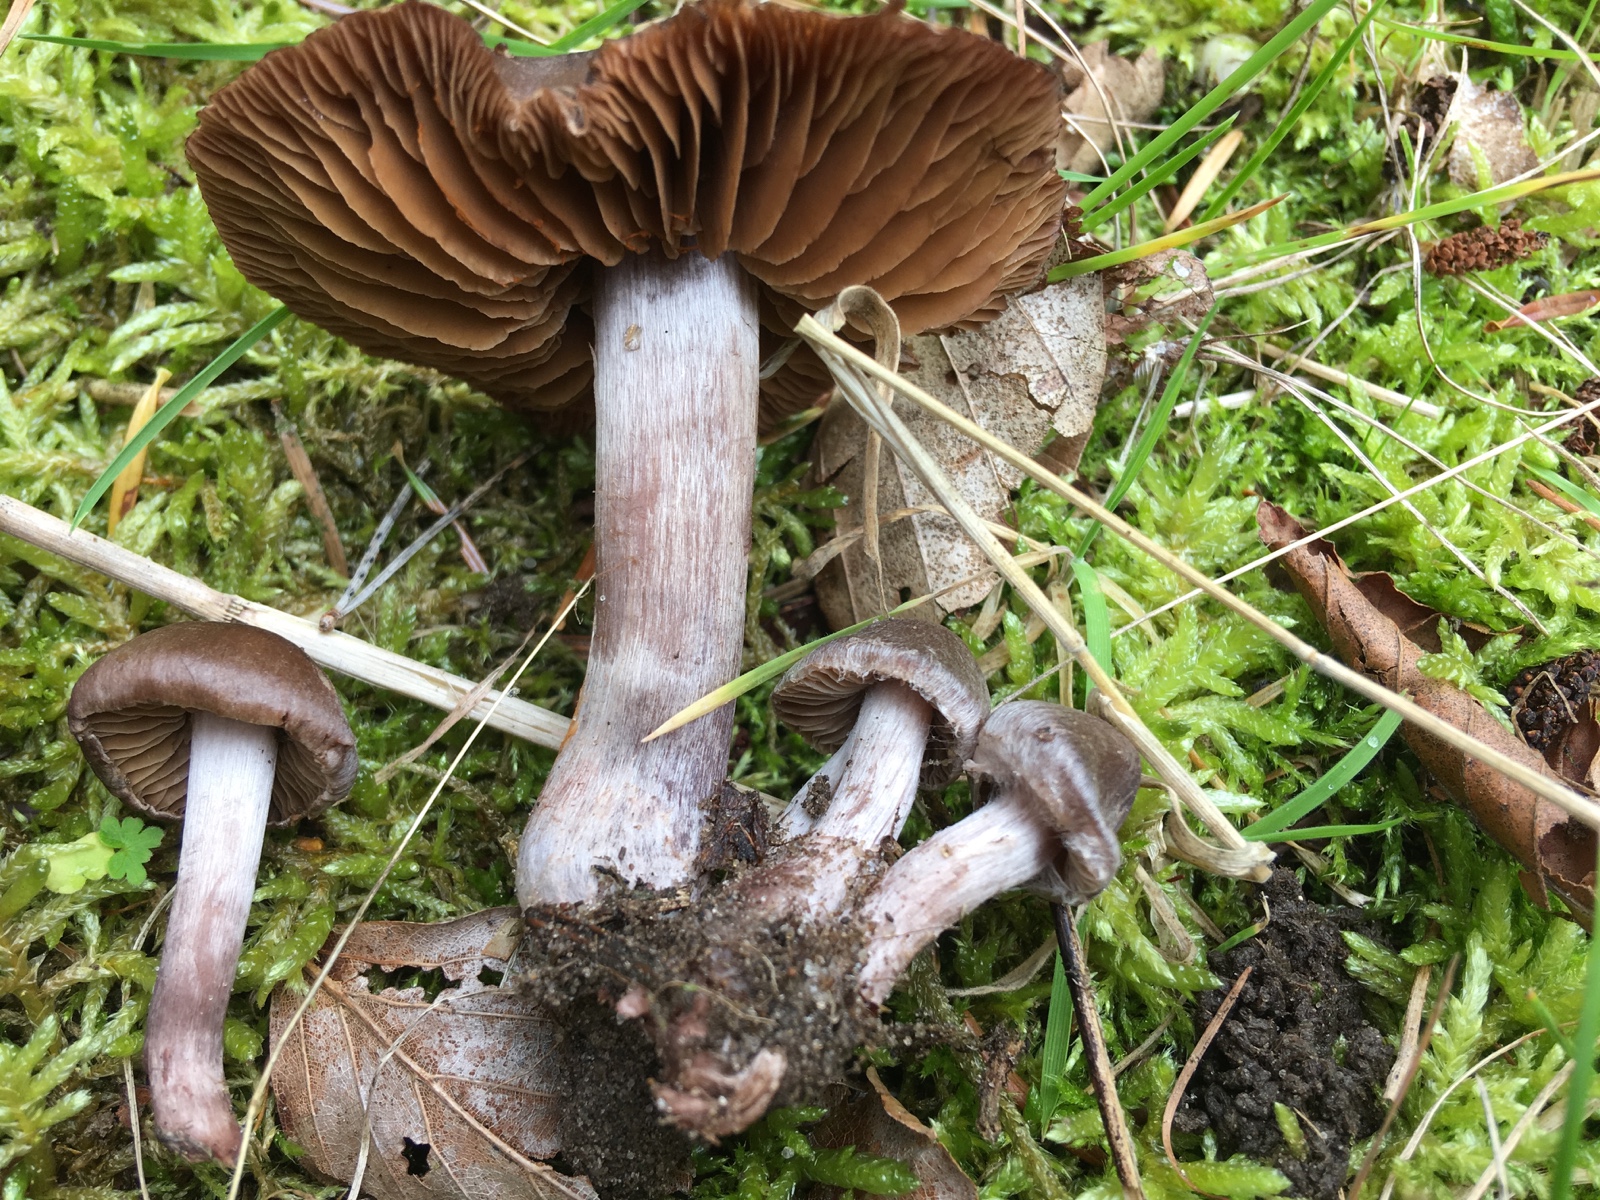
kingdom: Fungi
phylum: Basidiomycota
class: Agaricomycetes
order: Agaricales
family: Cortinariaceae
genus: Cortinarius
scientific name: Cortinarius vernus
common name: sommer-slørhat
